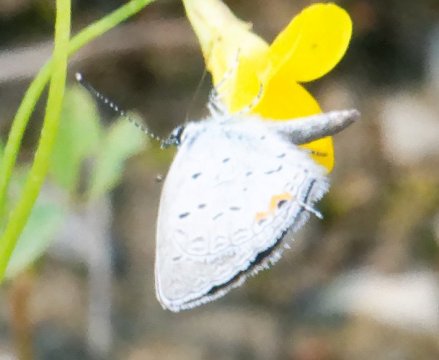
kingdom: Animalia
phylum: Arthropoda
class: Insecta
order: Lepidoptera
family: Lycaenidae
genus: Elkalyce
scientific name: Elkalyce comyntas
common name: Eastern Tailed-Blue
